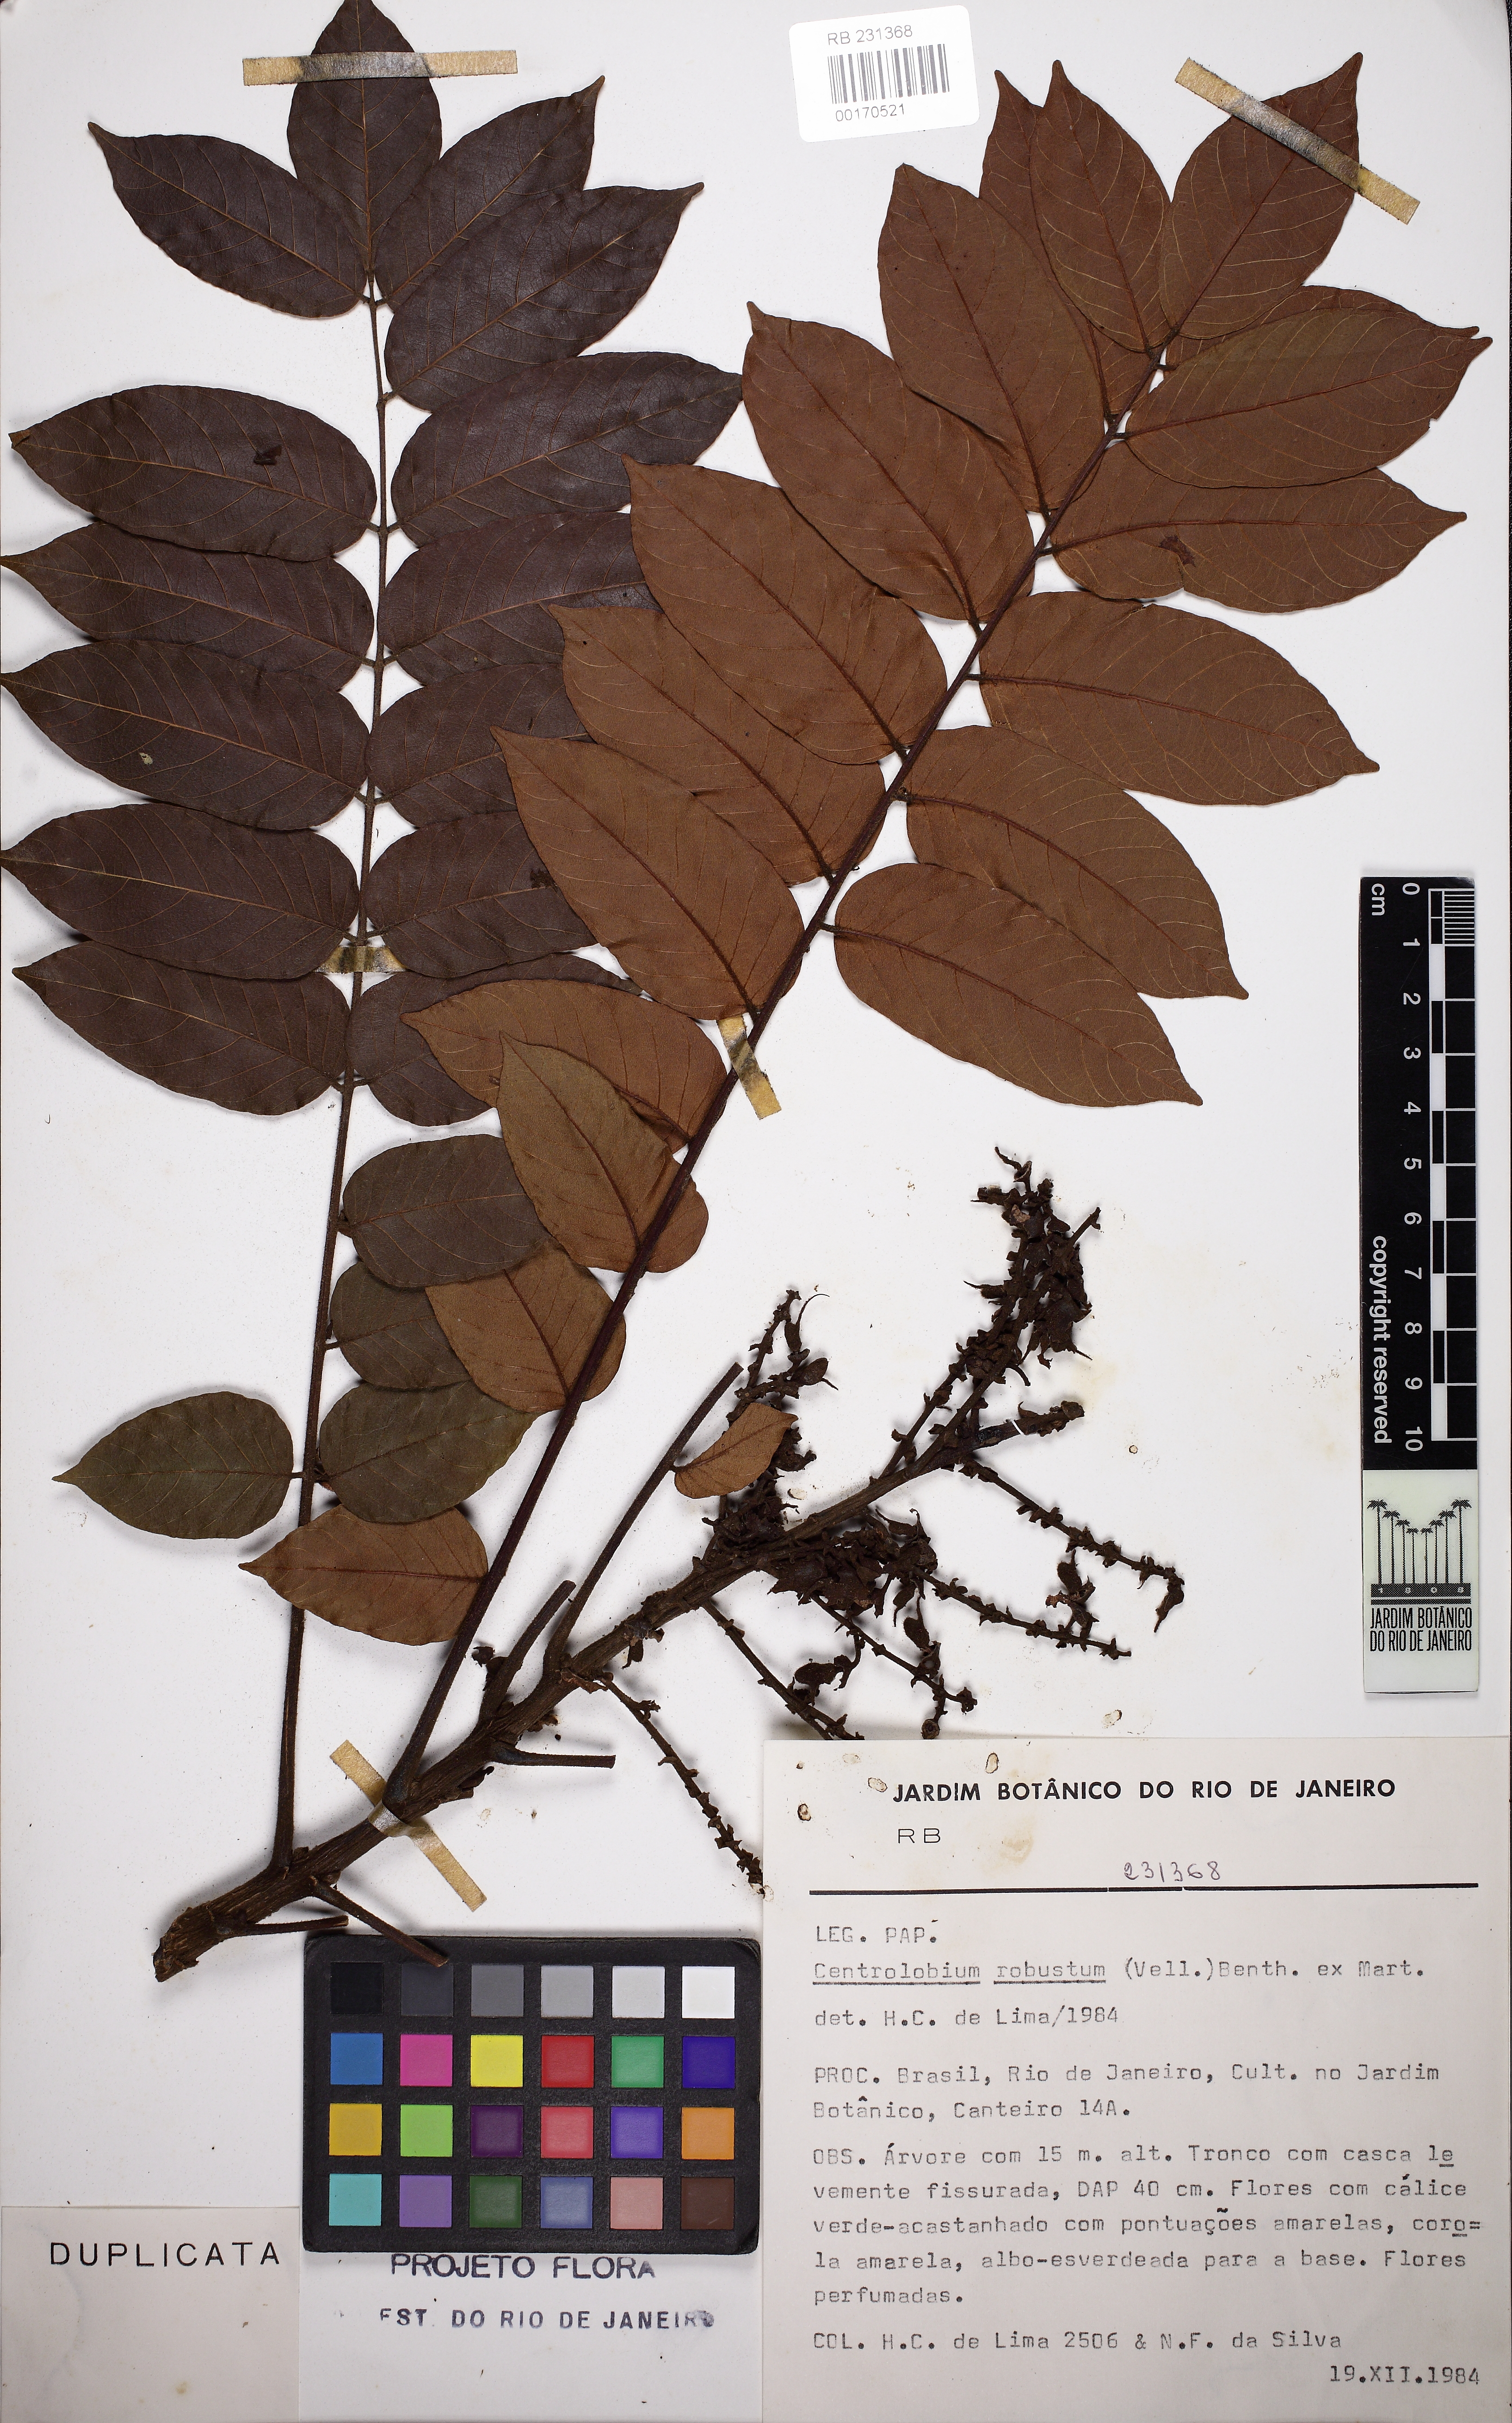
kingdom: Plantae
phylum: Tracheophyta
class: Magnoliopsida
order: Fabales
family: Fabaceae
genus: Centrolobium
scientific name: Centrolobium robustum
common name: Zebrawood
